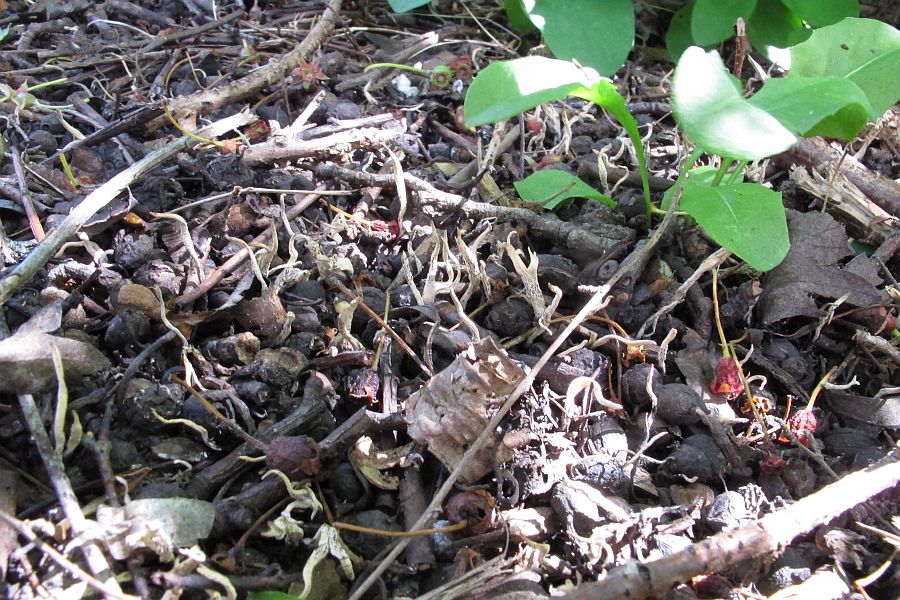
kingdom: Fungi
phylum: Ascomycota
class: Sordariomycetes
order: Xylariales
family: Xylariaceae
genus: Xylaria
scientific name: Xylaria oxyacanthae
